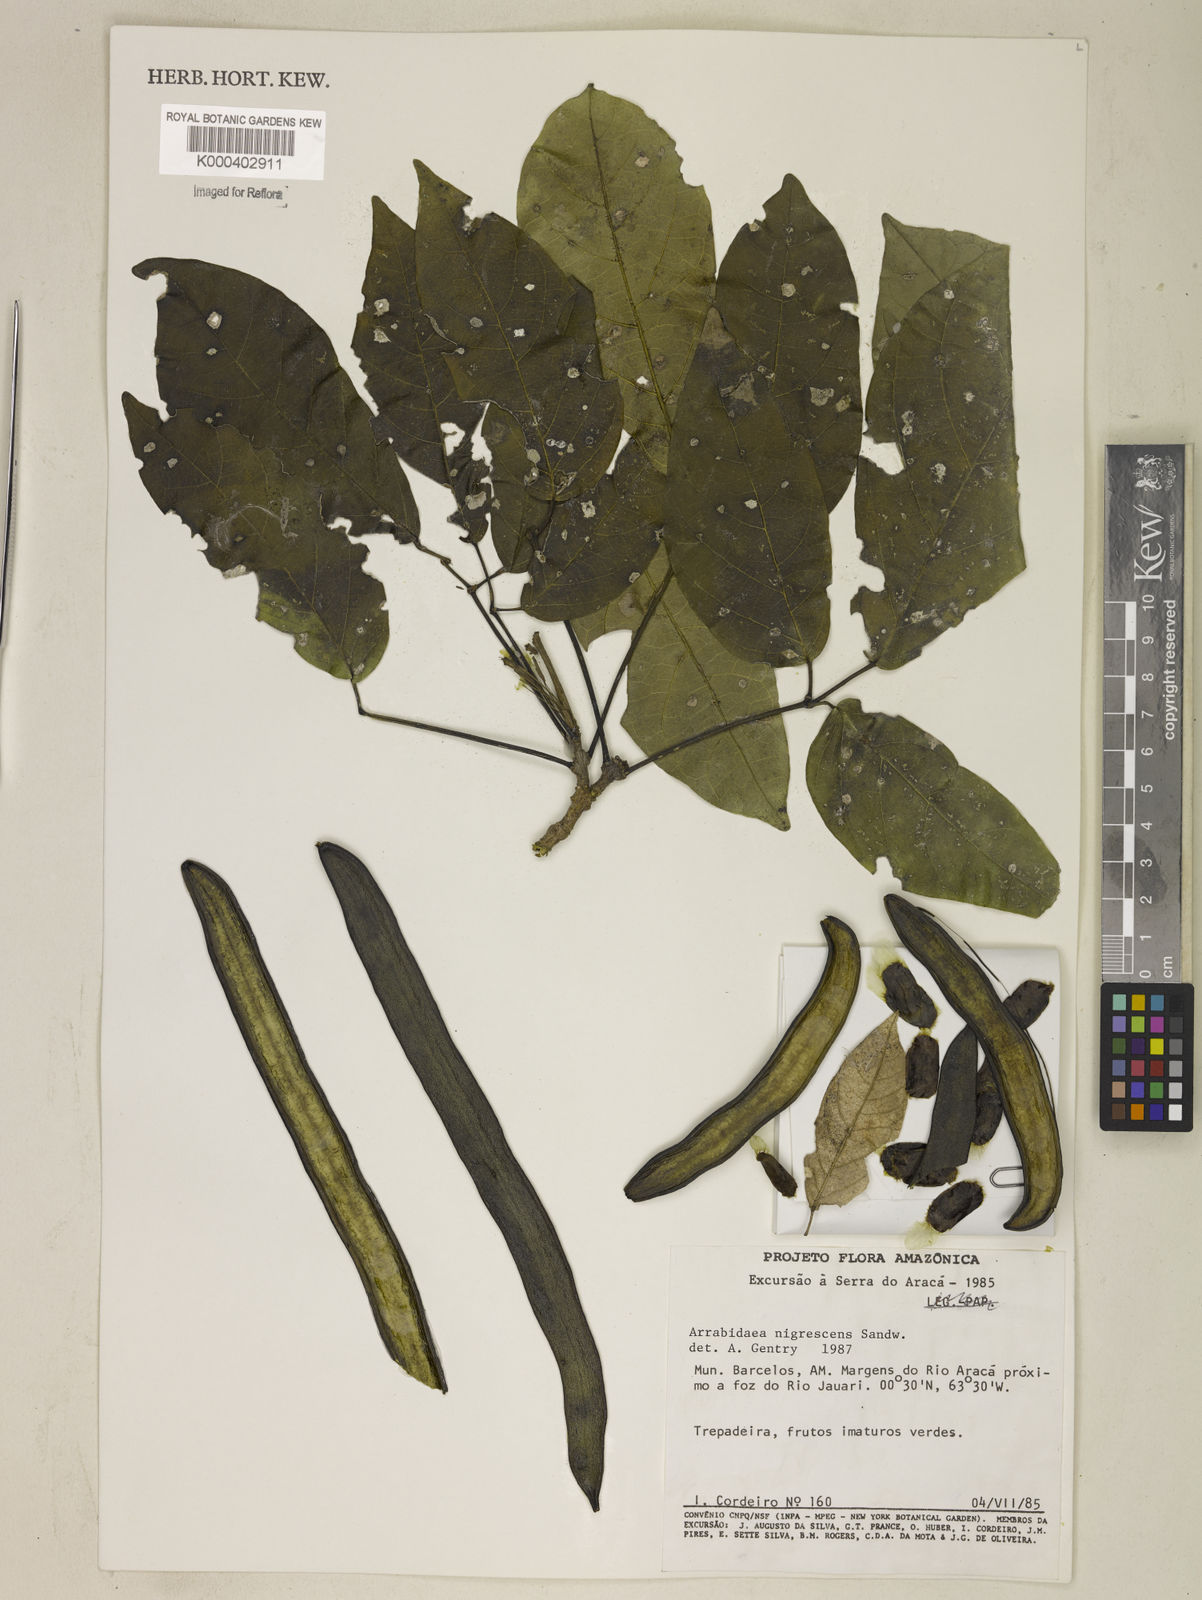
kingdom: Plantae
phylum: Tracheophyta
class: Magnoliopsida
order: Lamiales
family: Bignoniaceae
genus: Fridericia
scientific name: Fridericia nigrescens
